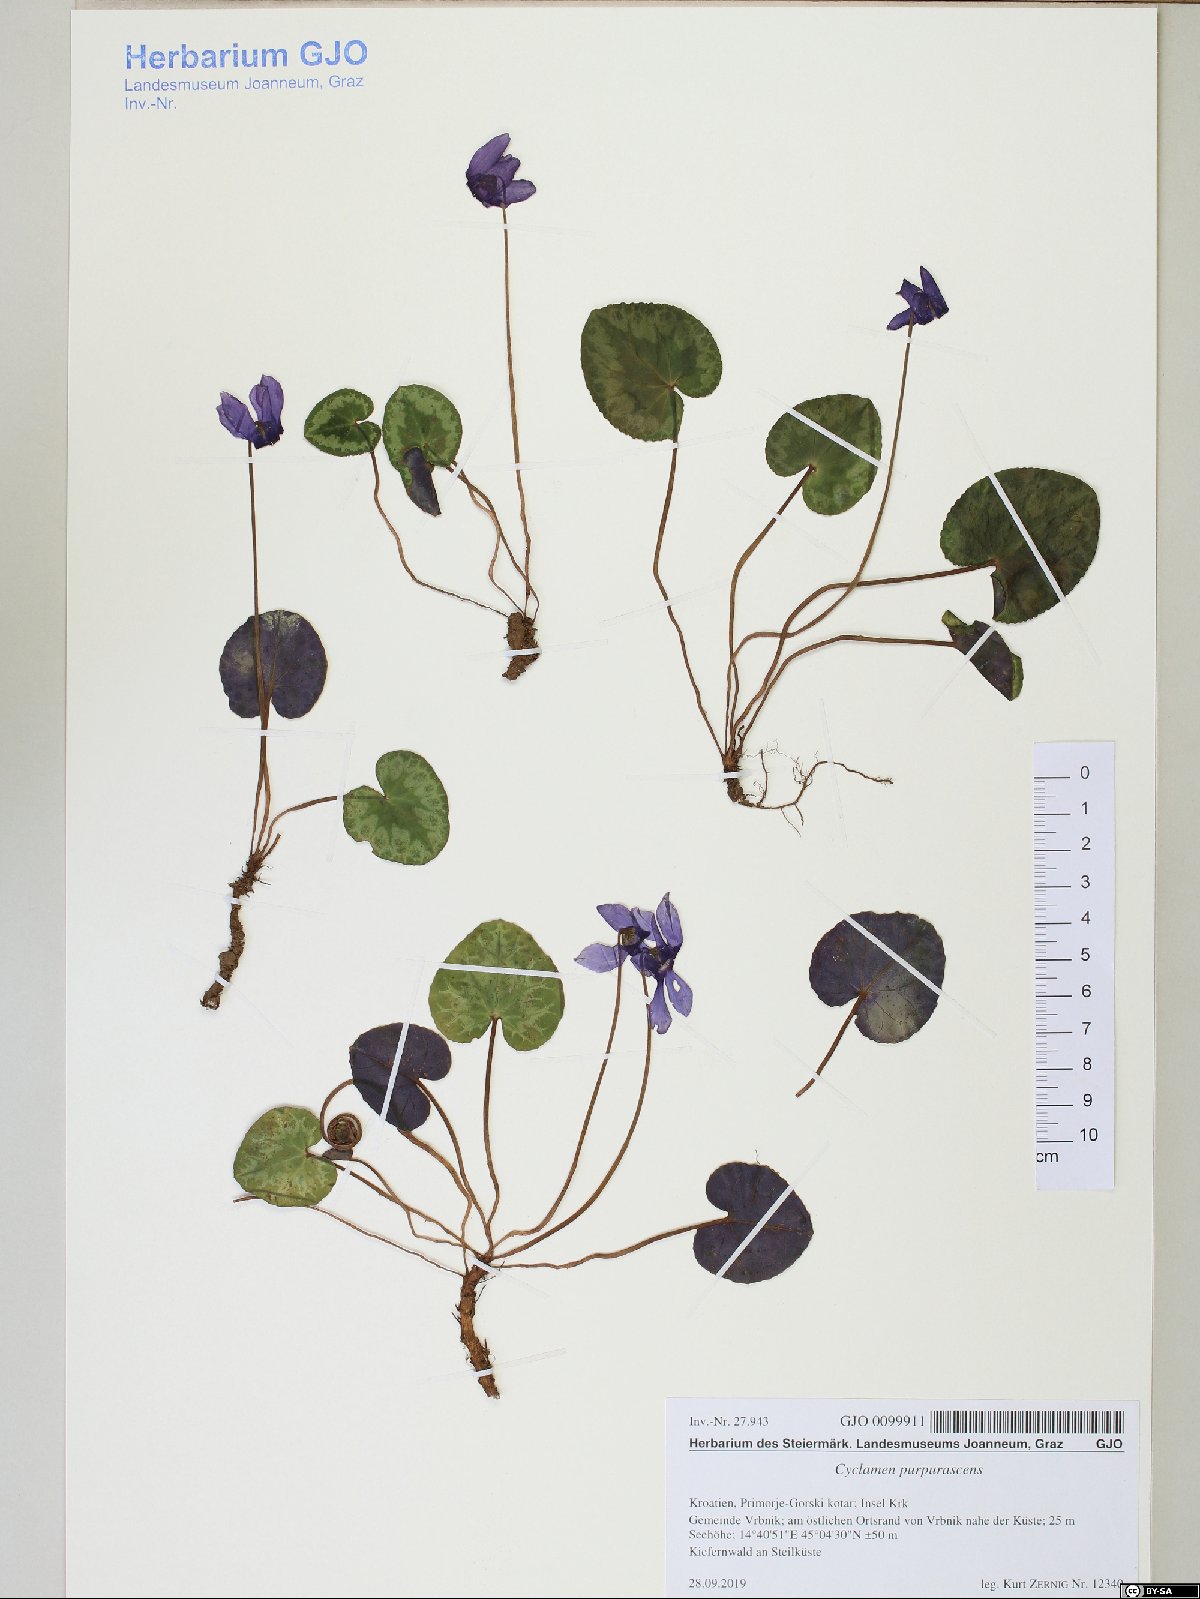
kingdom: Plantae
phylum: Tracheophyta
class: Magnoliopsida
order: Ericales
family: Primulaceae
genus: Cyclamen
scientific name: Cyclamen purpurascens
